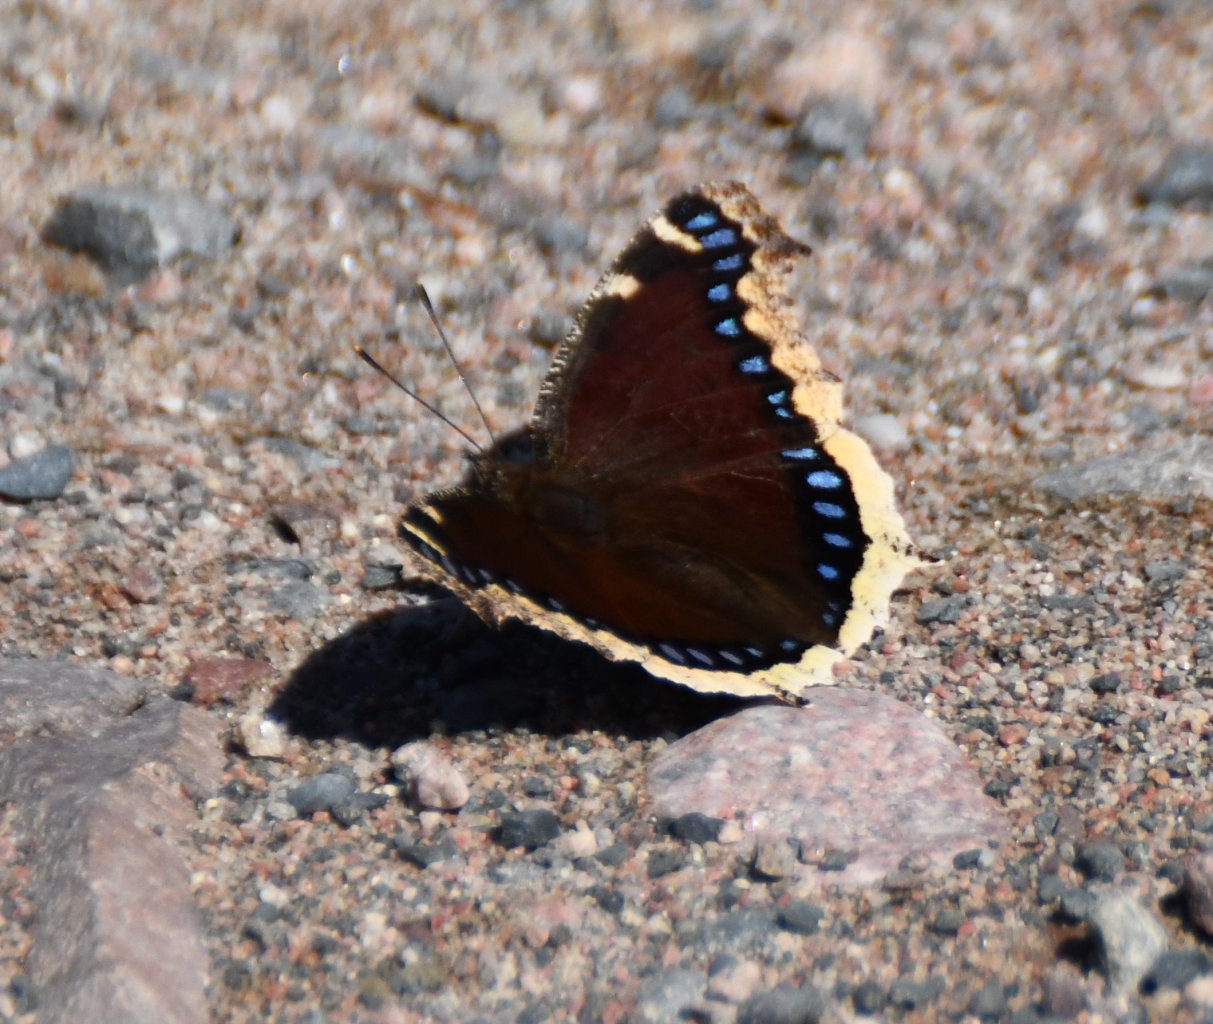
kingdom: Animalia
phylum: Arthropoda
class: Insecta
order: Lepidoptera
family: Nymphalidae
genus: Nymphalis
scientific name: Nymphalis antiopa
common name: Mourning Cloak
